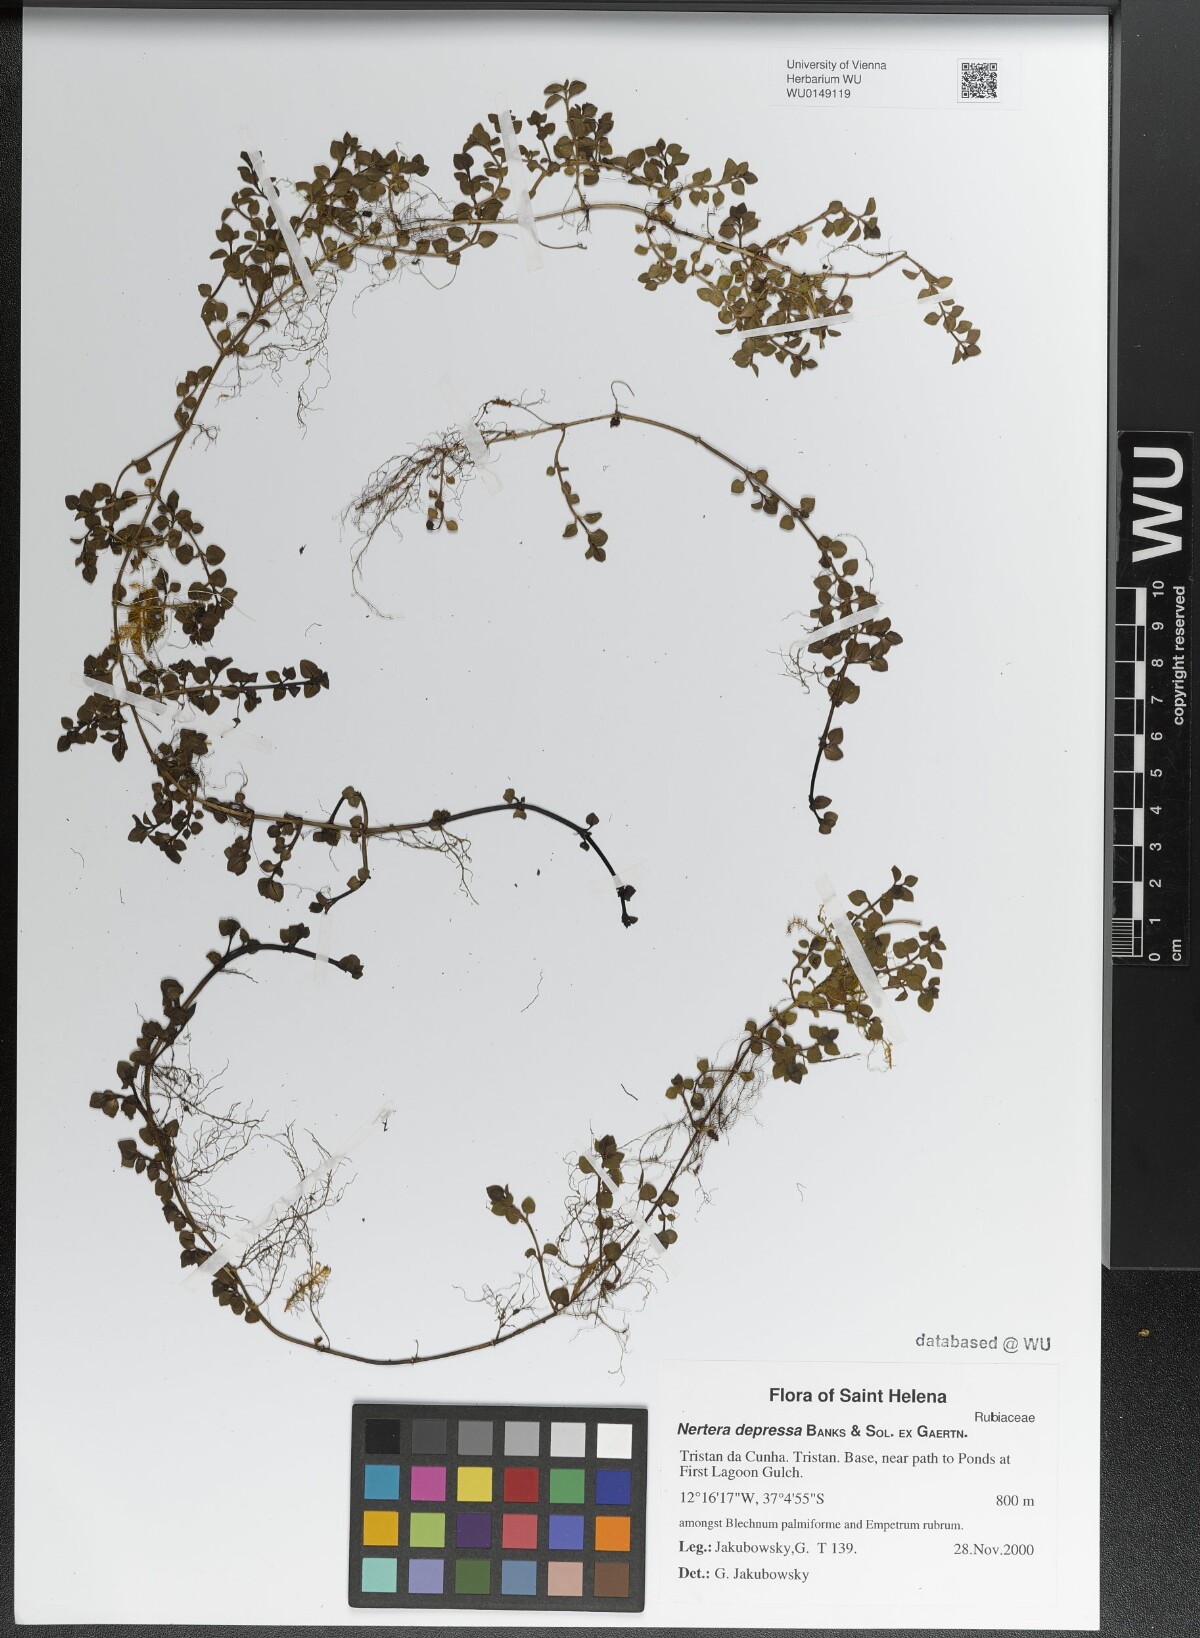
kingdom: Plantae
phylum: Tracheophyta
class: Magnoliopsida
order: Gentianales
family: Rubiaceae
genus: Nertera
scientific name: Nertera granadensis
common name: Beadplant
